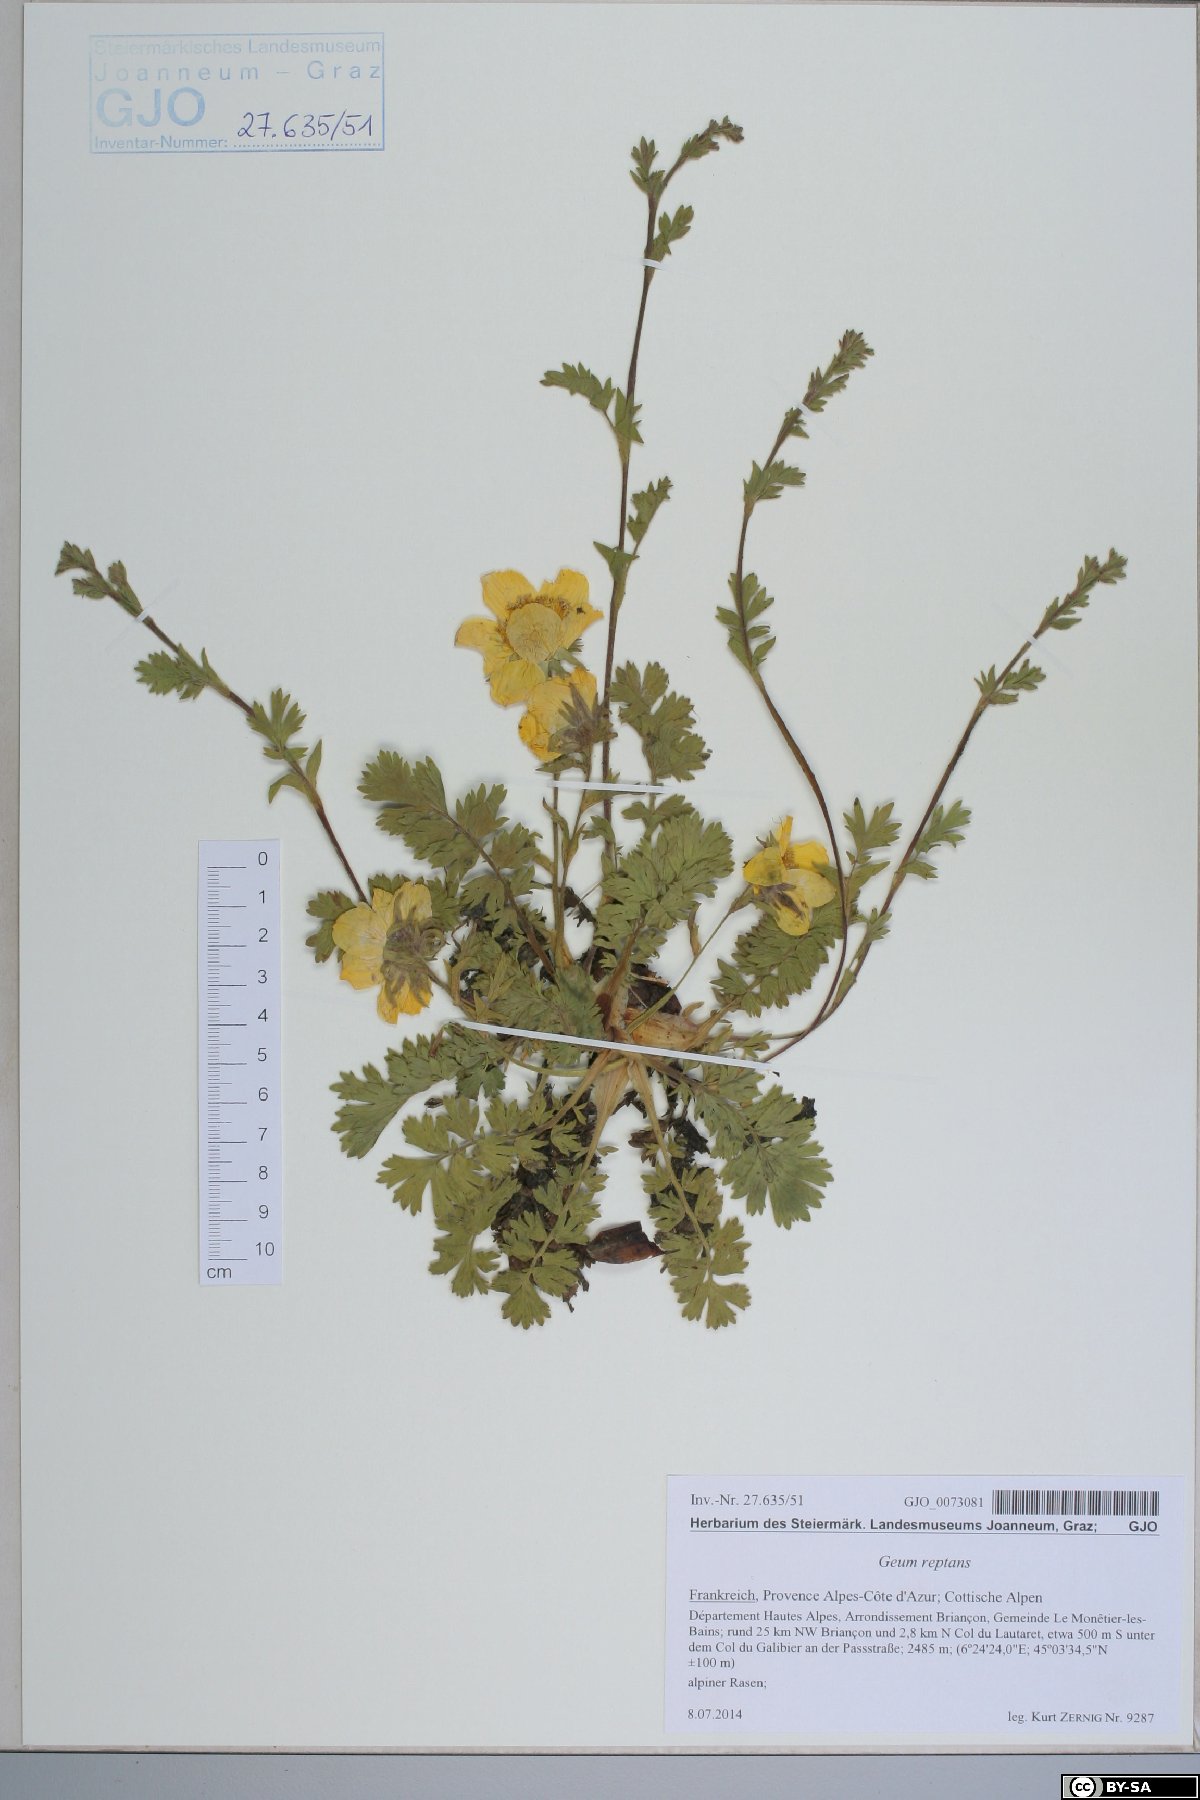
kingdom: Plantae
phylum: Tracheophyta
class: Magnoliopsida
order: Rosales
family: Rosaceae
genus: Geum
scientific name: Geum reptans
